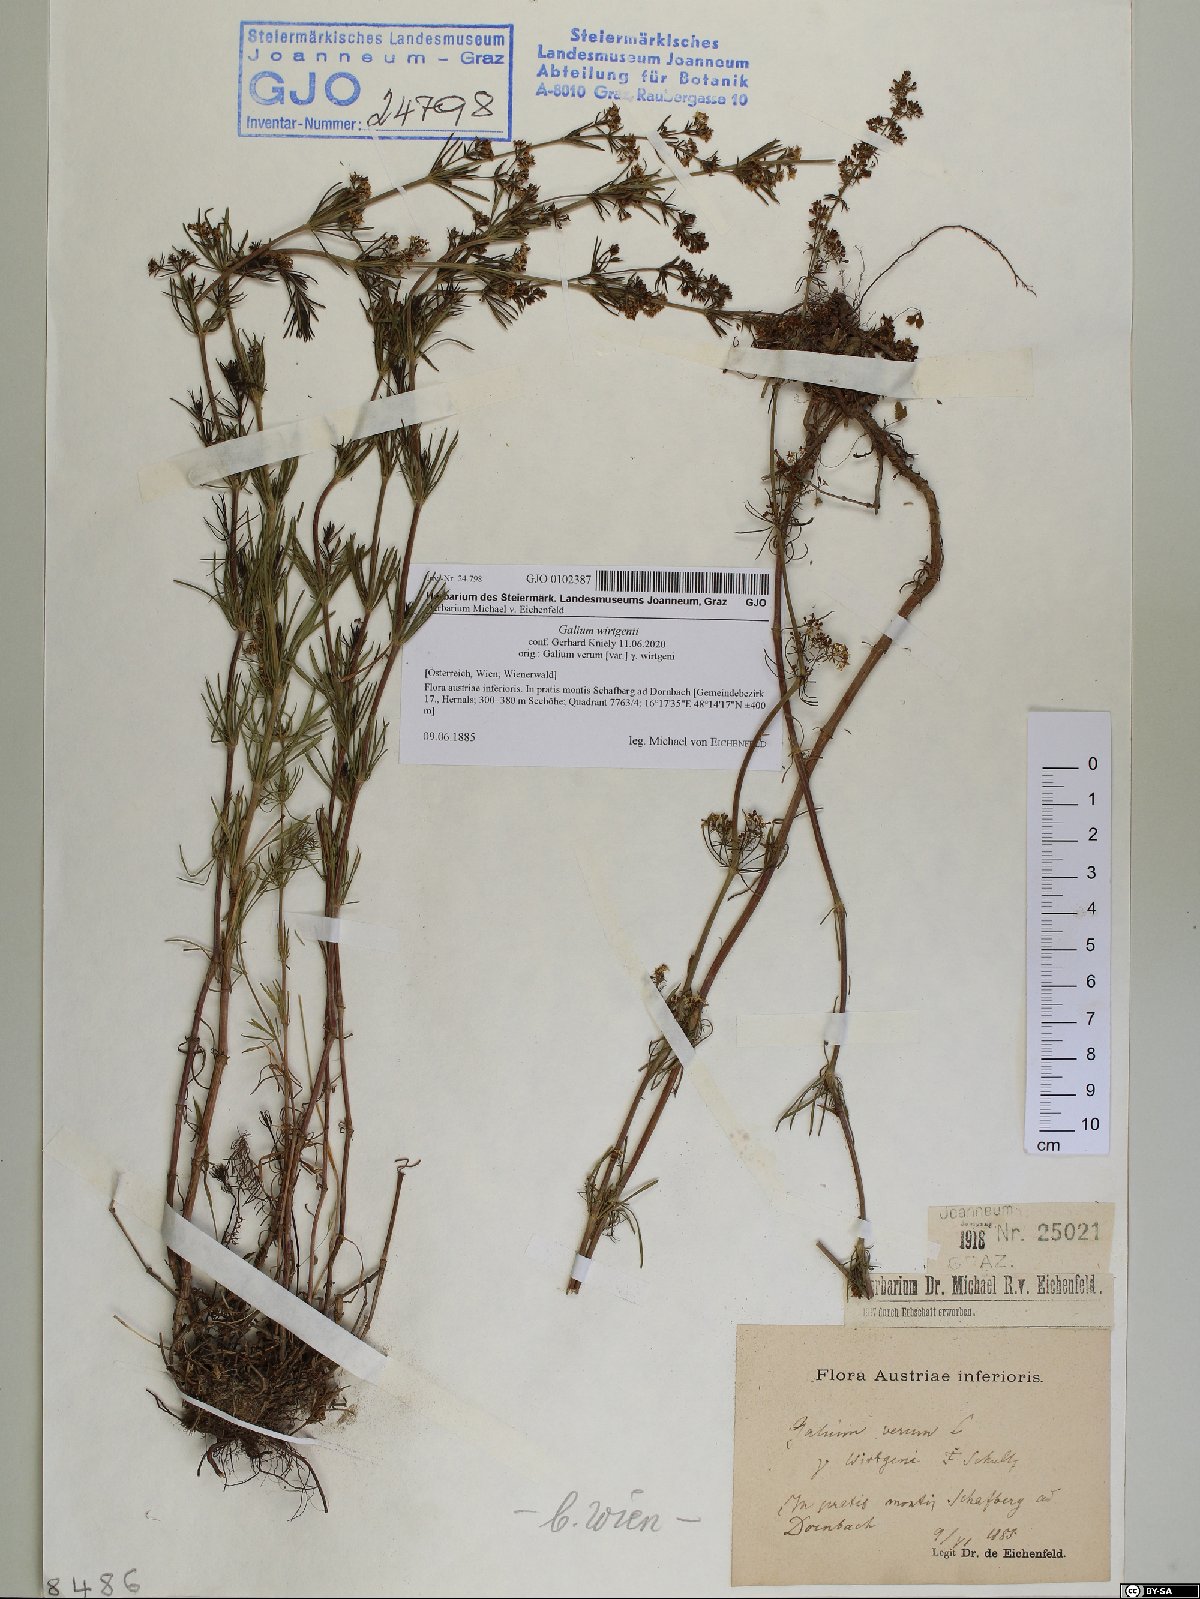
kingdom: Plantae
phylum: Tracheophyta
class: Magnoliopsida
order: Gentianales
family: Rubiaceae
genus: Galium
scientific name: Galium verum
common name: Lady's bedstraw
